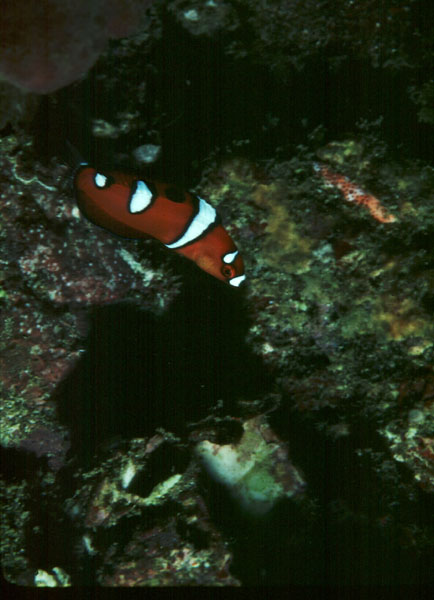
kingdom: Animalia
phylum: Chordata
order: Perciformes
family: Labridae
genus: Coris
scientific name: Coris formosa
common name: Queen coris
